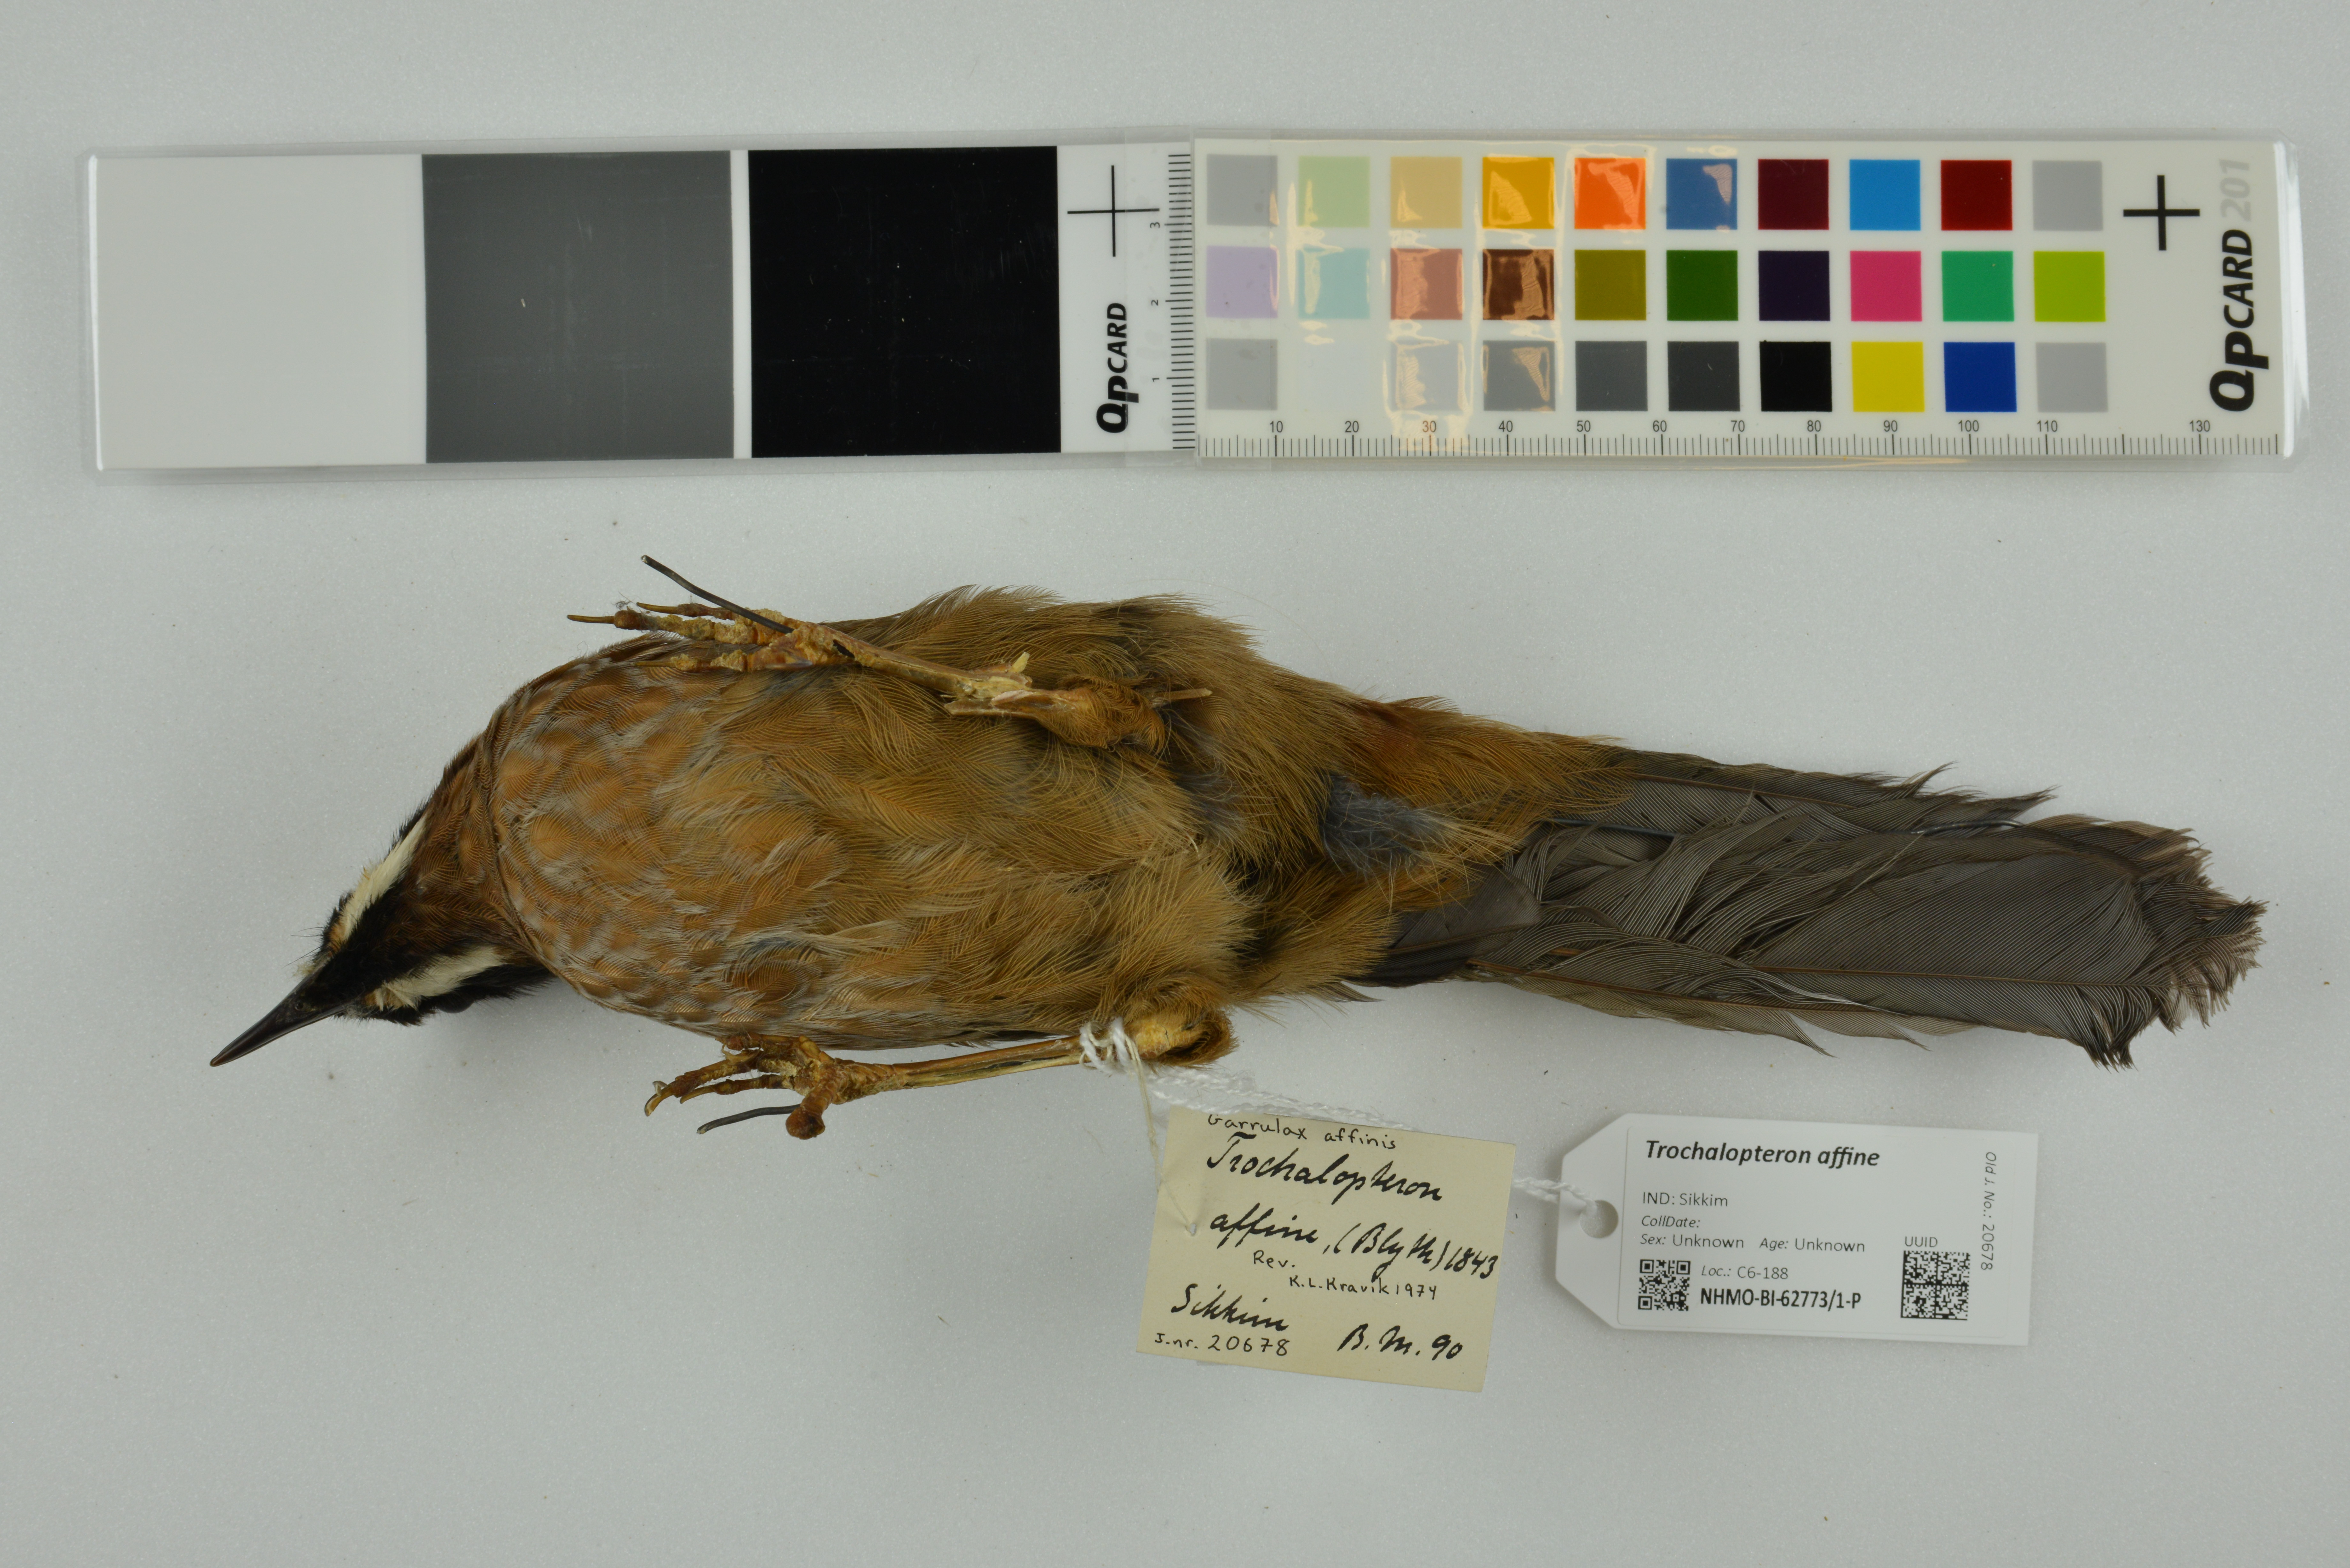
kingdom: Animalia
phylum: Chordata
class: Aves
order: Passeriformes
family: Leiothrichidae
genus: Trochalopteron
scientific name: Trochalopteron affine
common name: Black-faced laughingthrush
